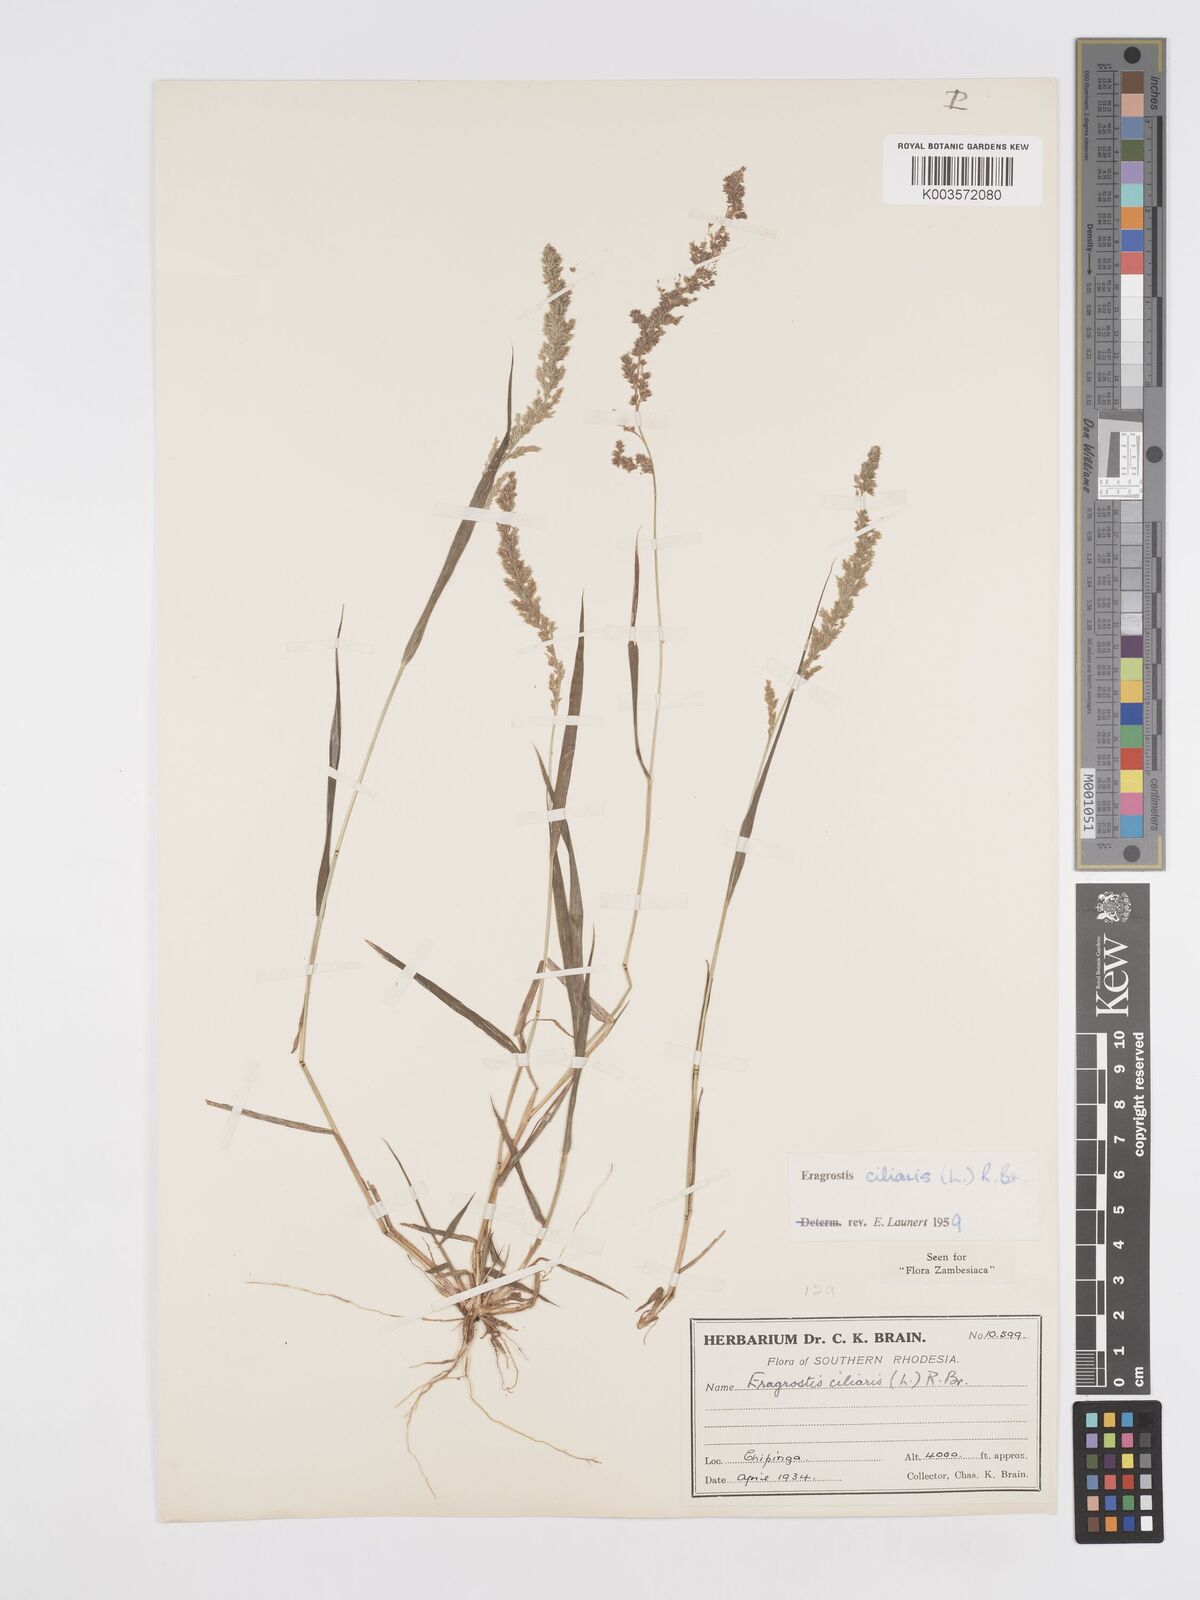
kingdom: Plantae
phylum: Tracheophyta
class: Liliopsida
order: Poales
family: Poaceae
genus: Eragrostis
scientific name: Eragrostis ciliaris
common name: Gophertail lovegrass
